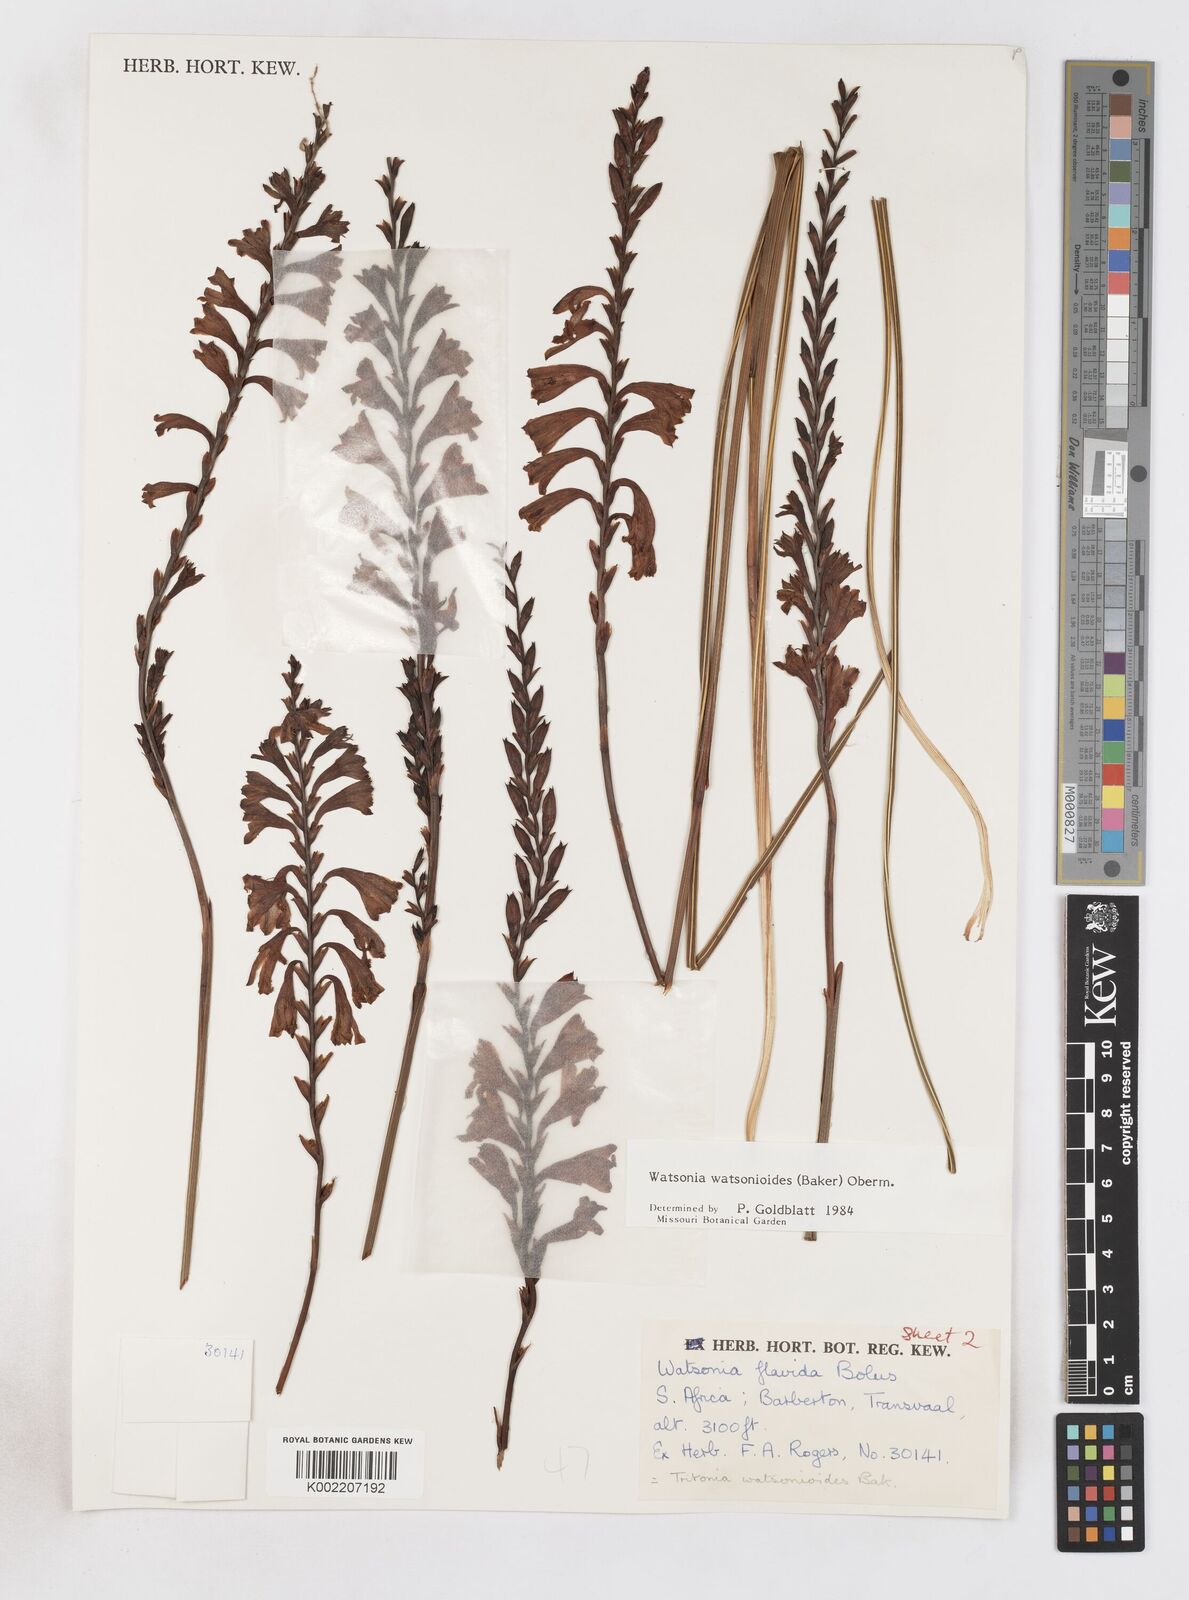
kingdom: Plantae
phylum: Tracheophyta
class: Liliopsida
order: Asparagales
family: Iridaceae
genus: Watsonia
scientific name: Watsonia watsonioides
